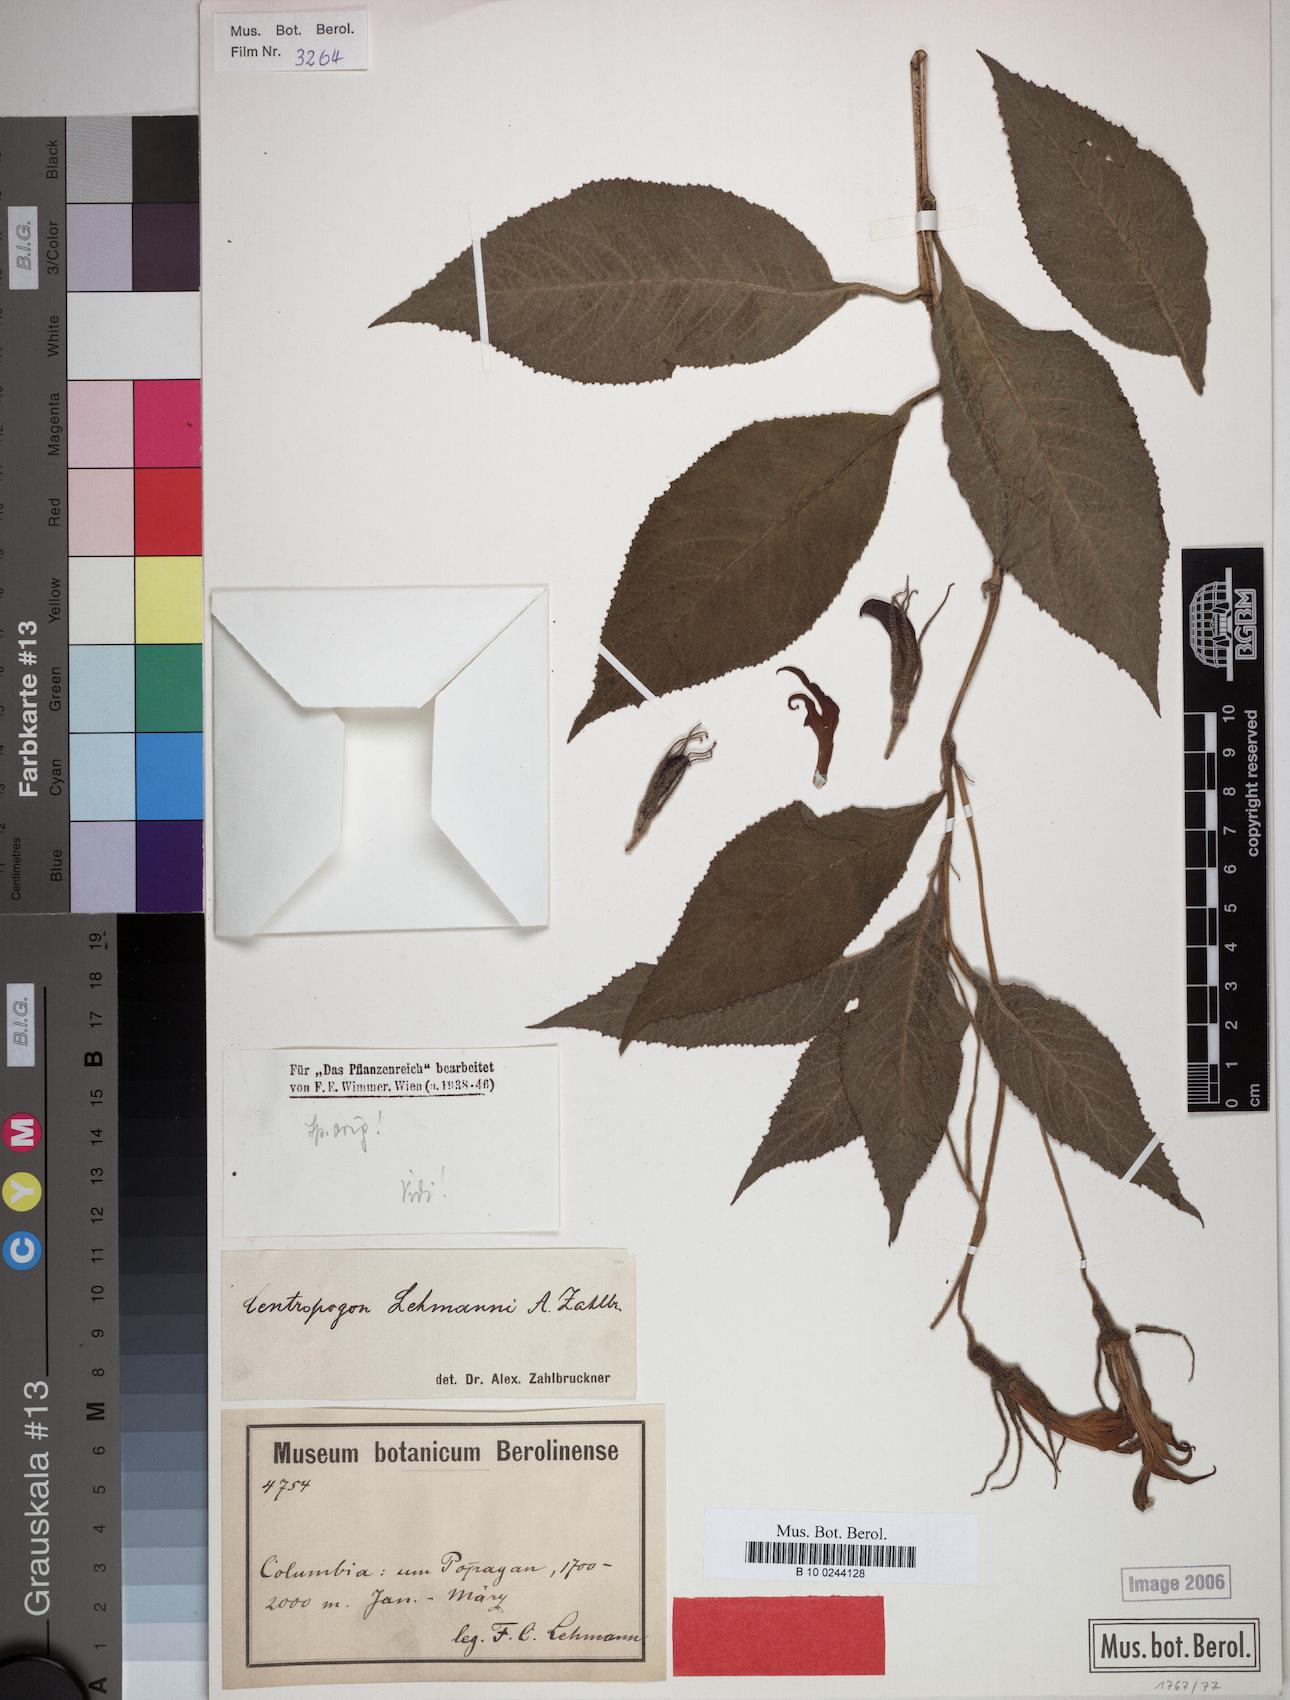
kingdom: Plantae
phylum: Tracheophyta
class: Magnoliopsida
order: Asterales
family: Campanulaceae
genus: Centropogon
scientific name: Centropogon lehmannii
